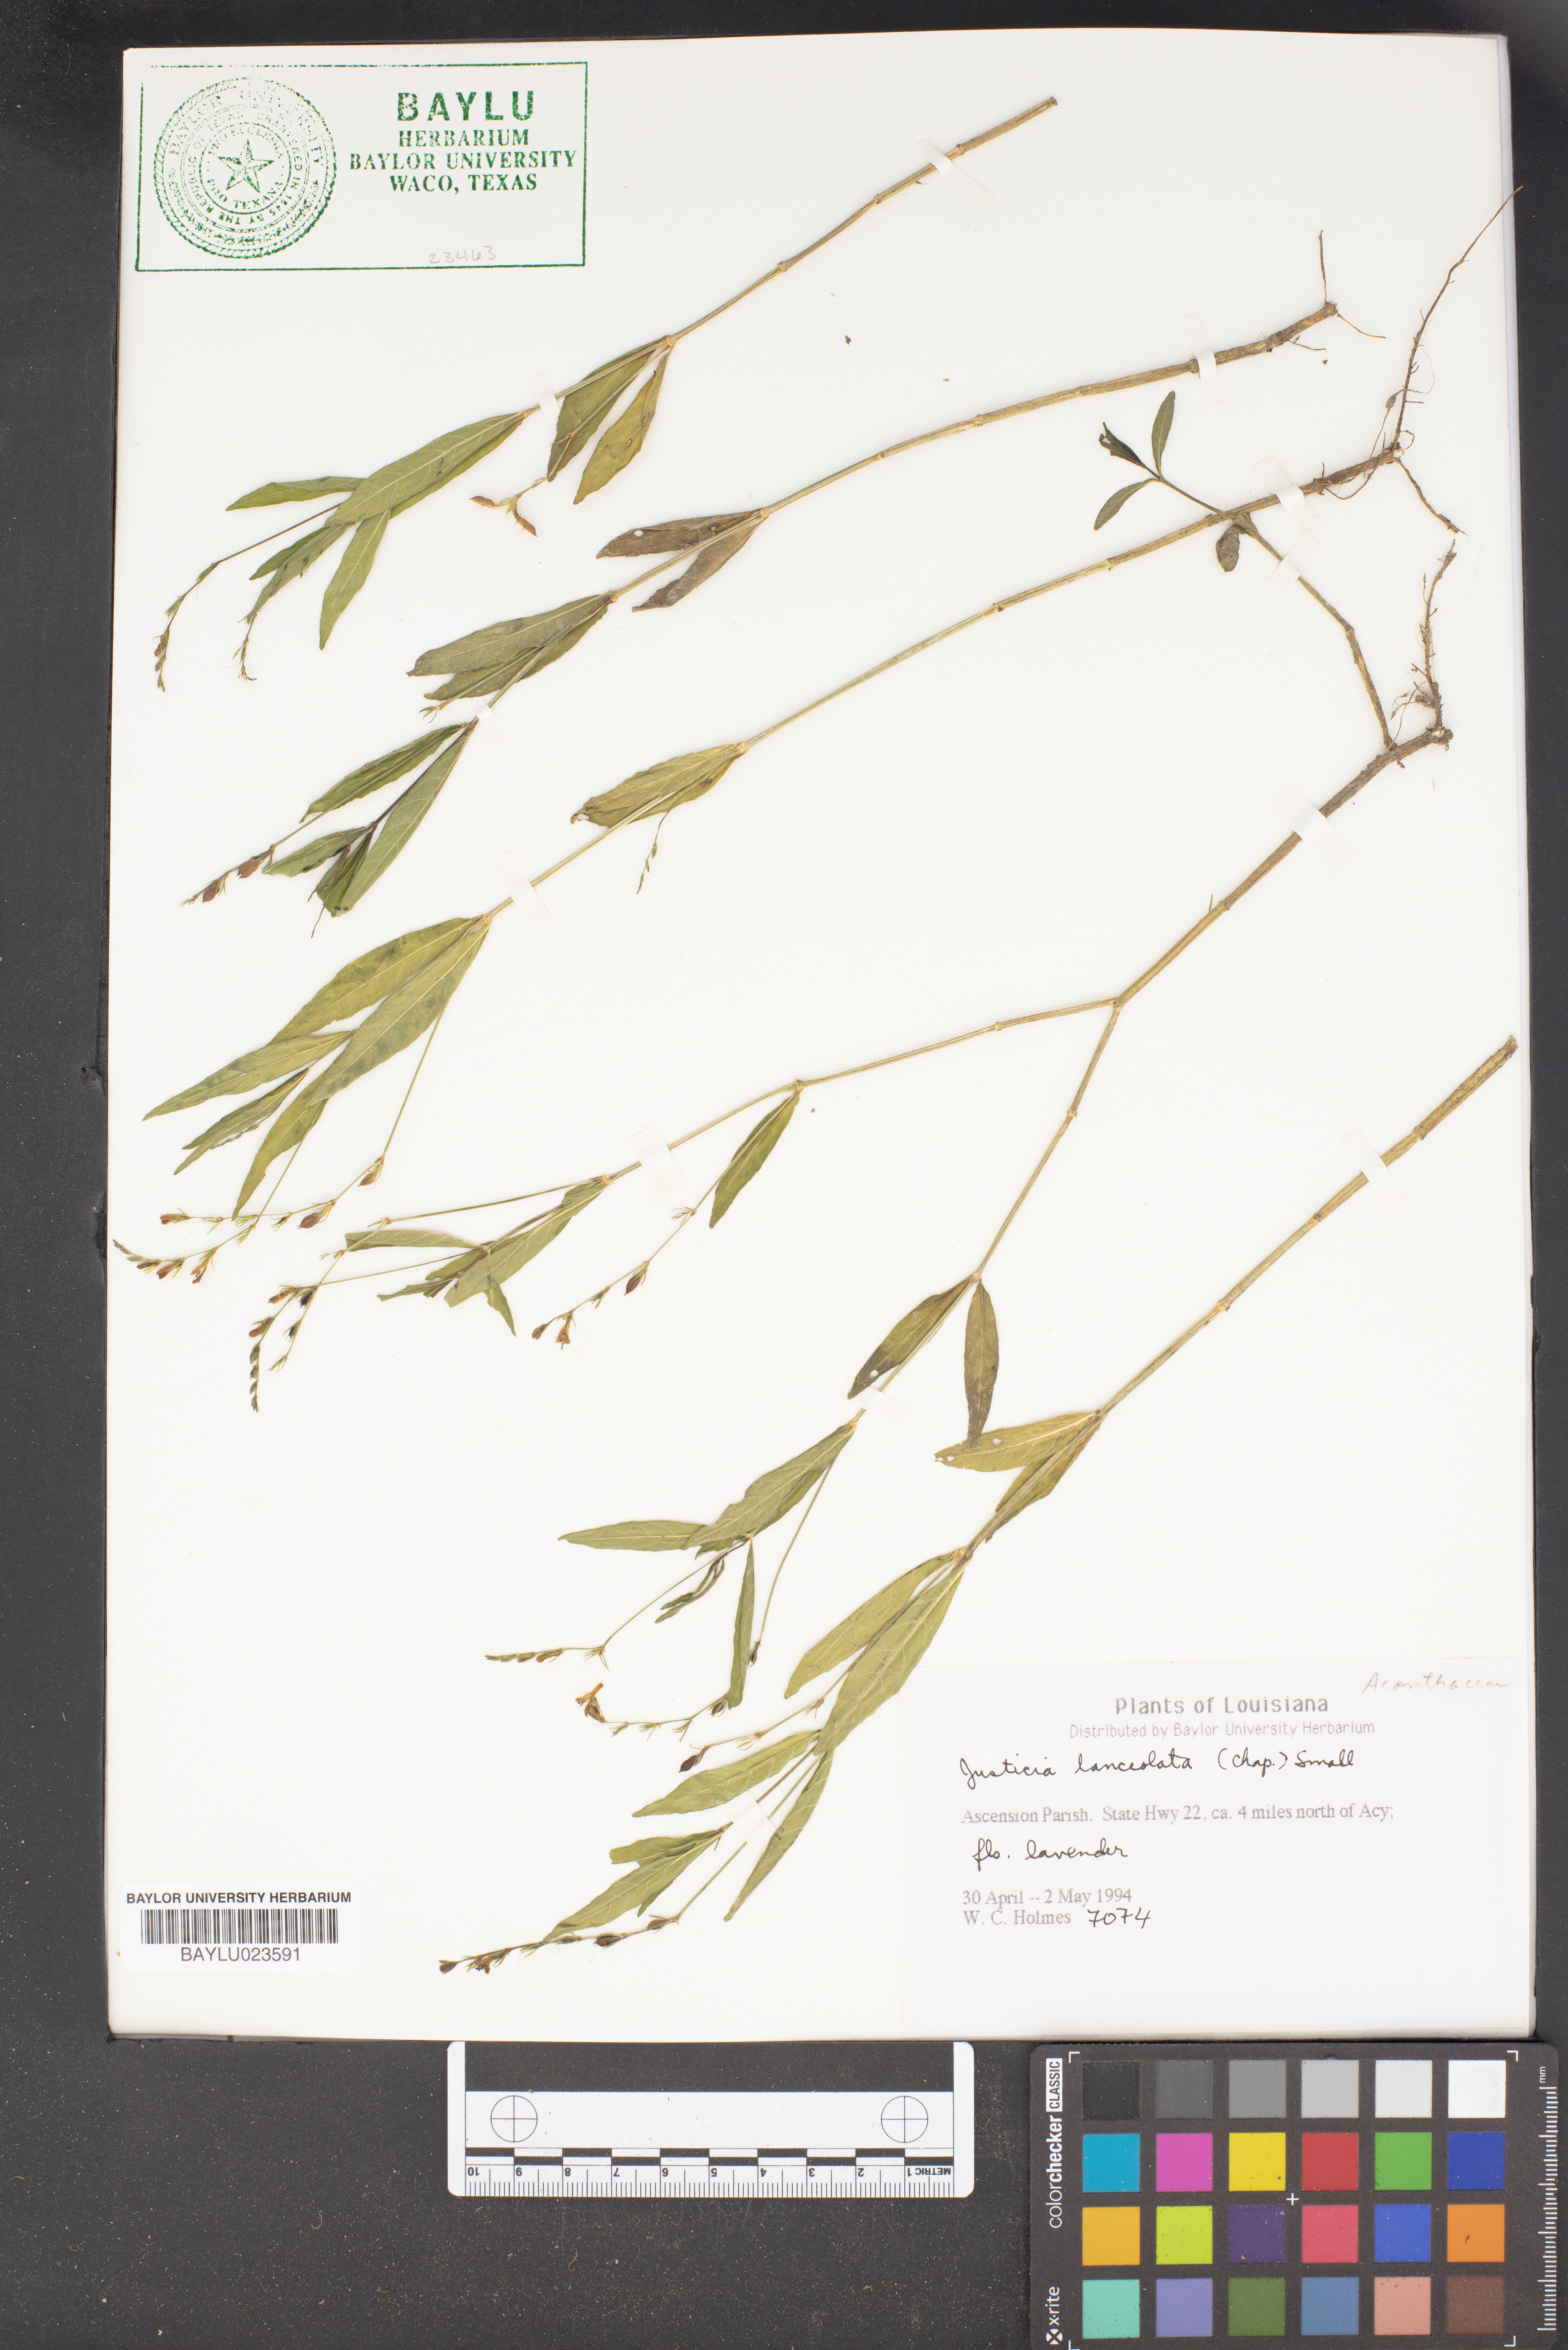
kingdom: Plantae
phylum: Tracheophyta
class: Magnoliopsida
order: Lamiales
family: Acanthaceae
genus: Justicia
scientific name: Justicia lanceolata
